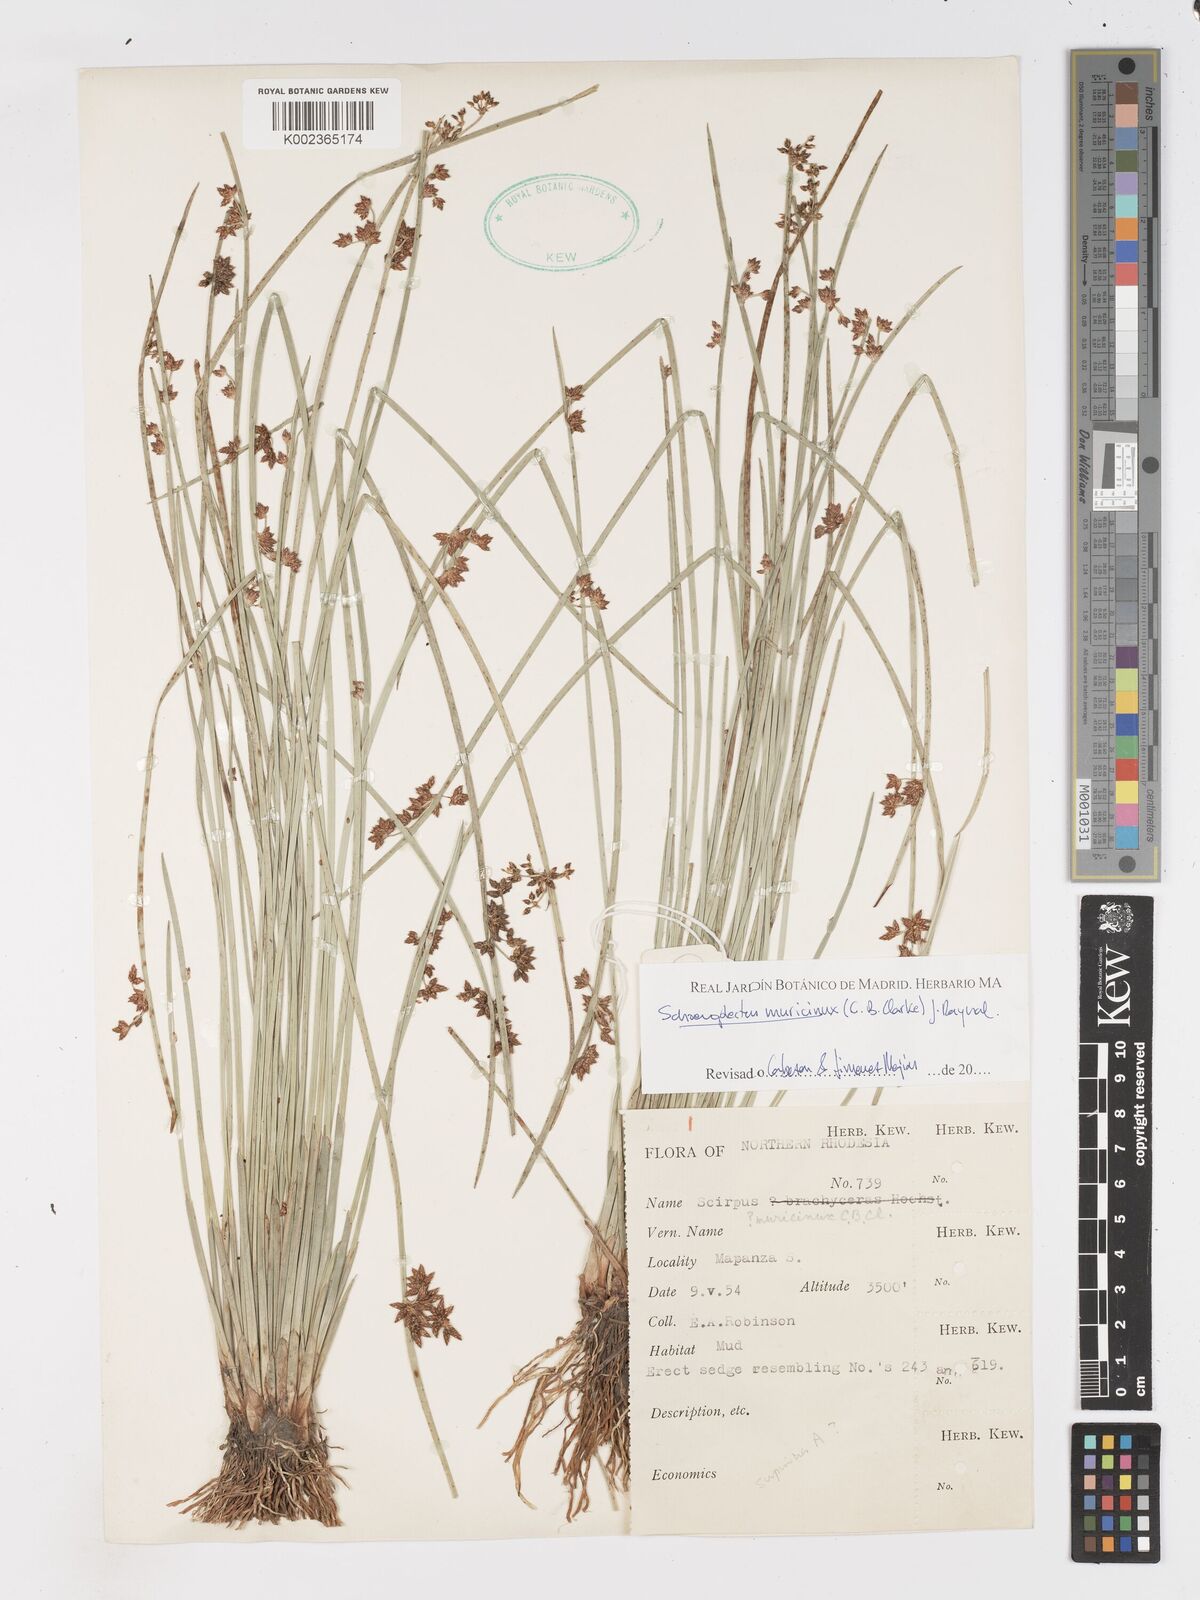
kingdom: Plantae
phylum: Tracheophyta
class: Liliopsida
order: Poales
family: Cyperaceae
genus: Schoenoplectiella
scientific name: Schoenoplectiella muricinux
